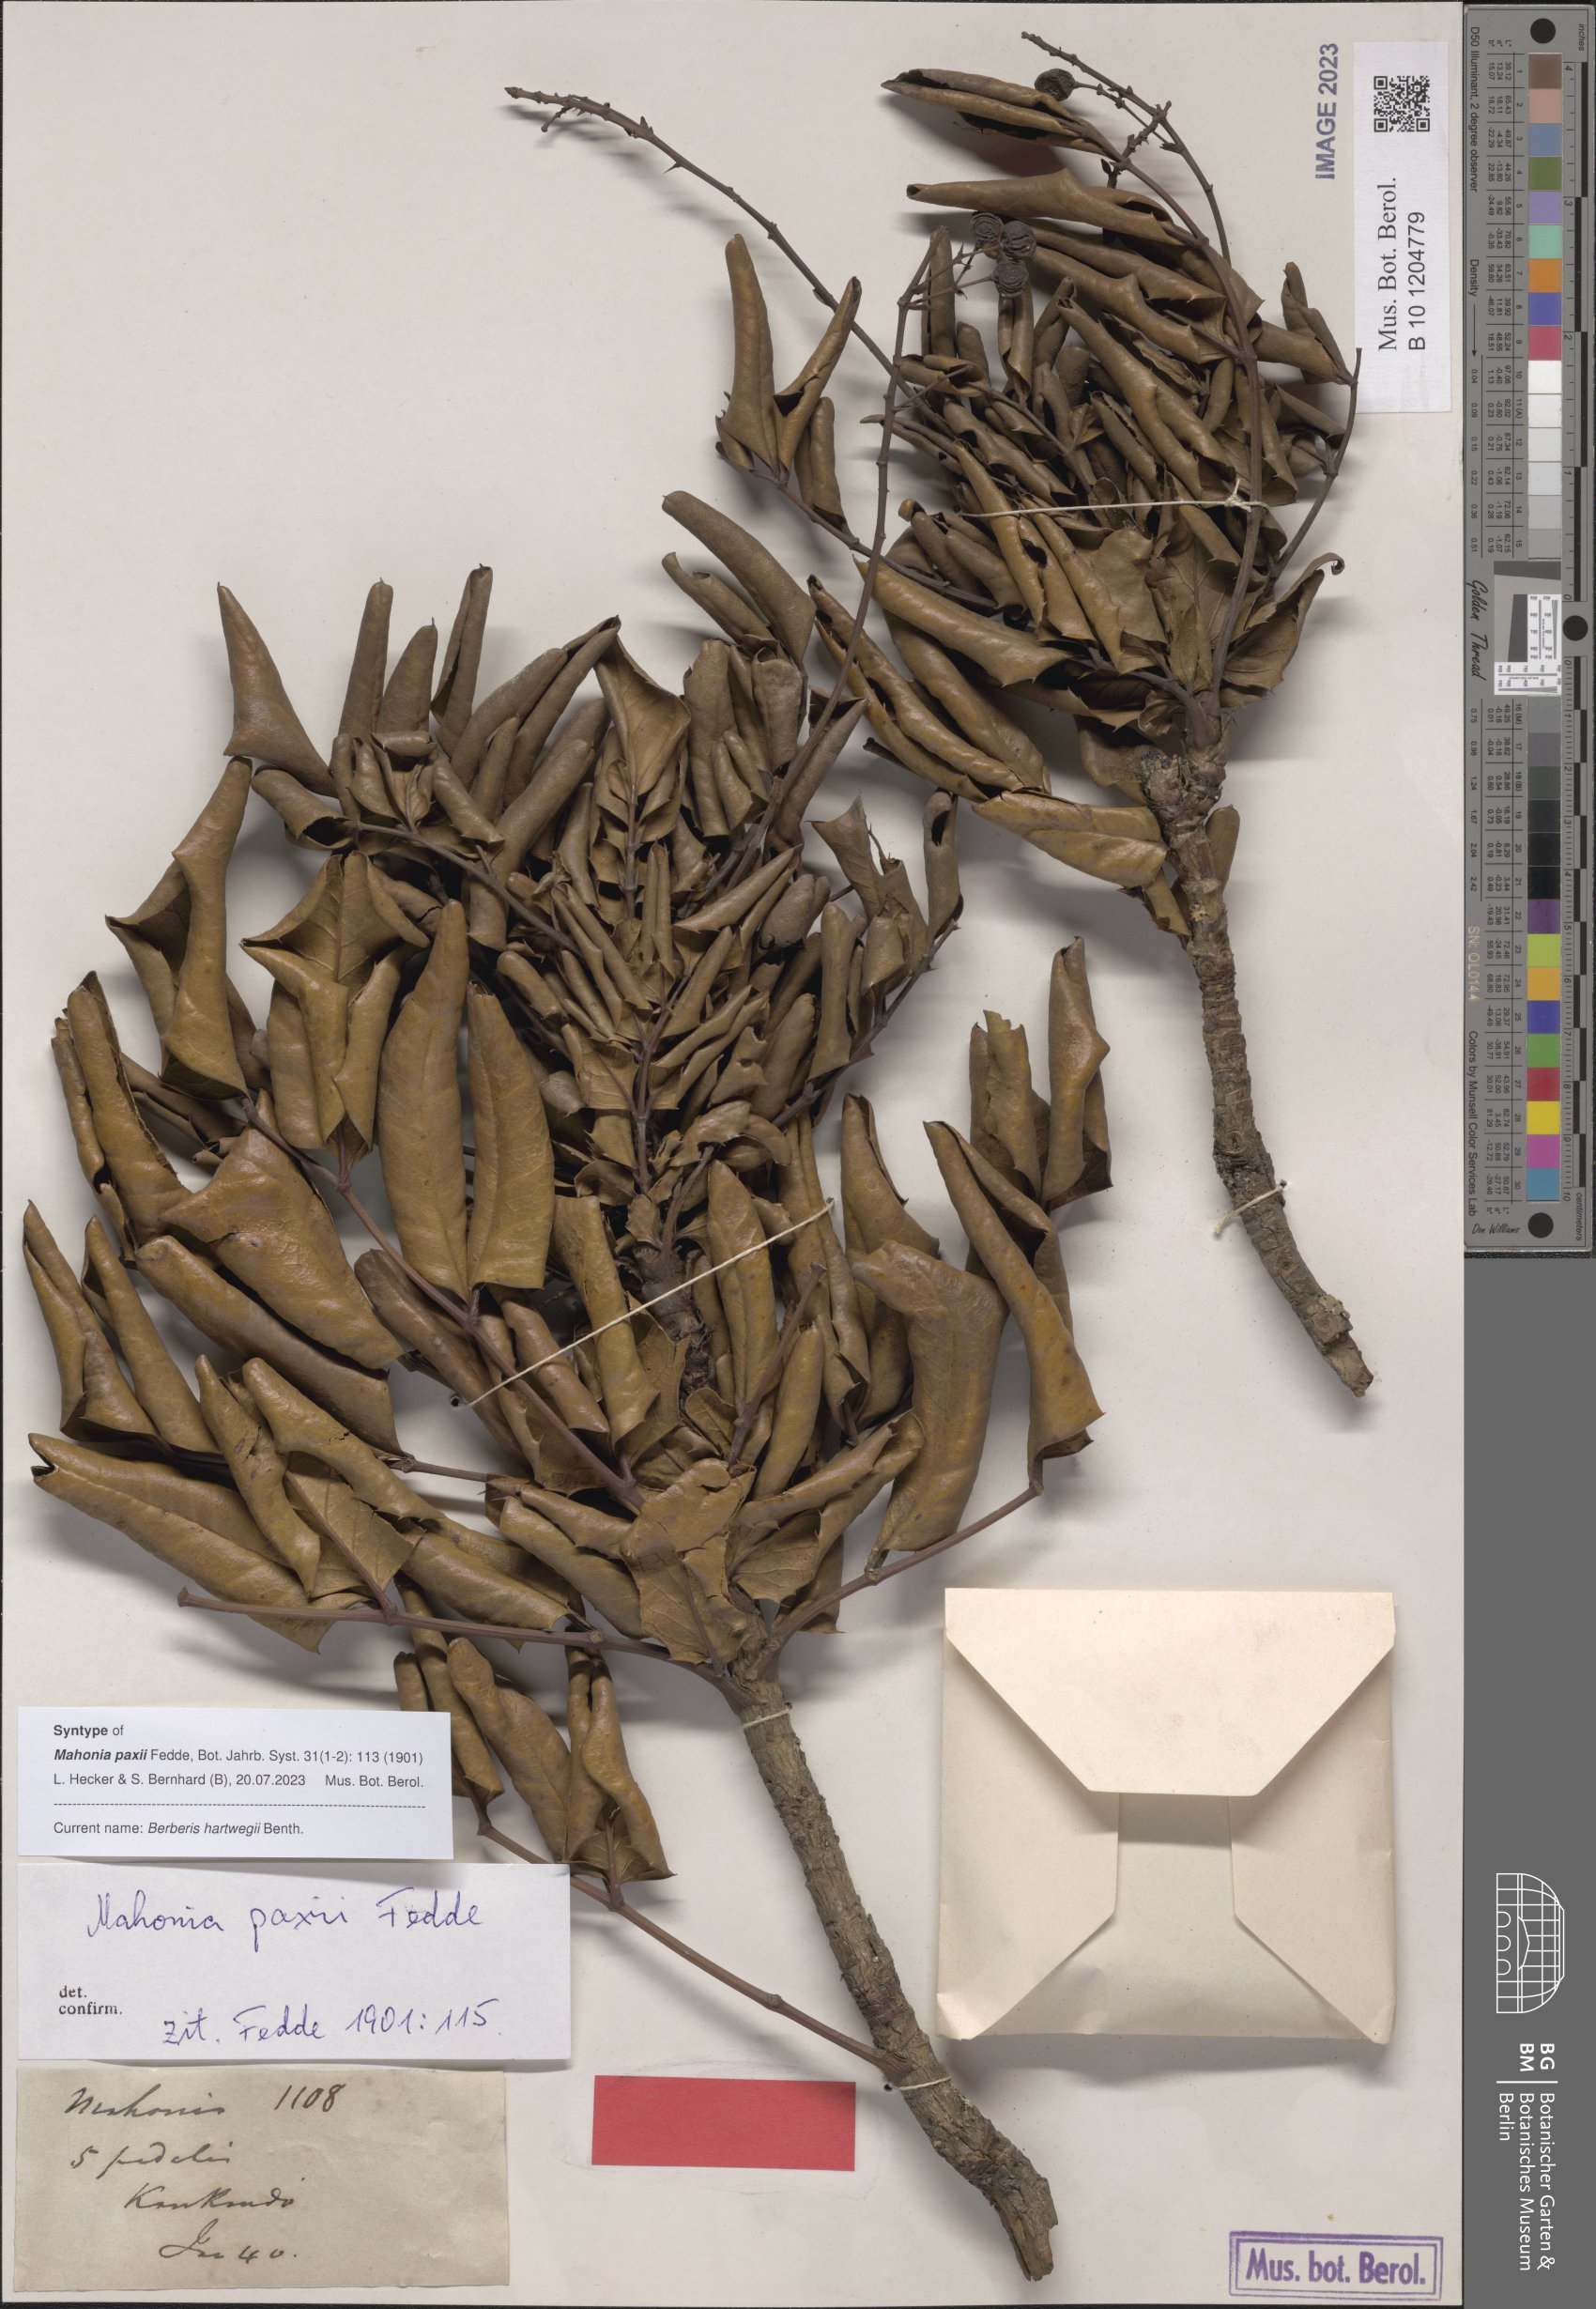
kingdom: Plantae
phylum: Tracheophyta
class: Magnoliopsida
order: Ranunculales
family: Berberidaceae
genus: Mahonia
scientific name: Mahonia hartwegii
